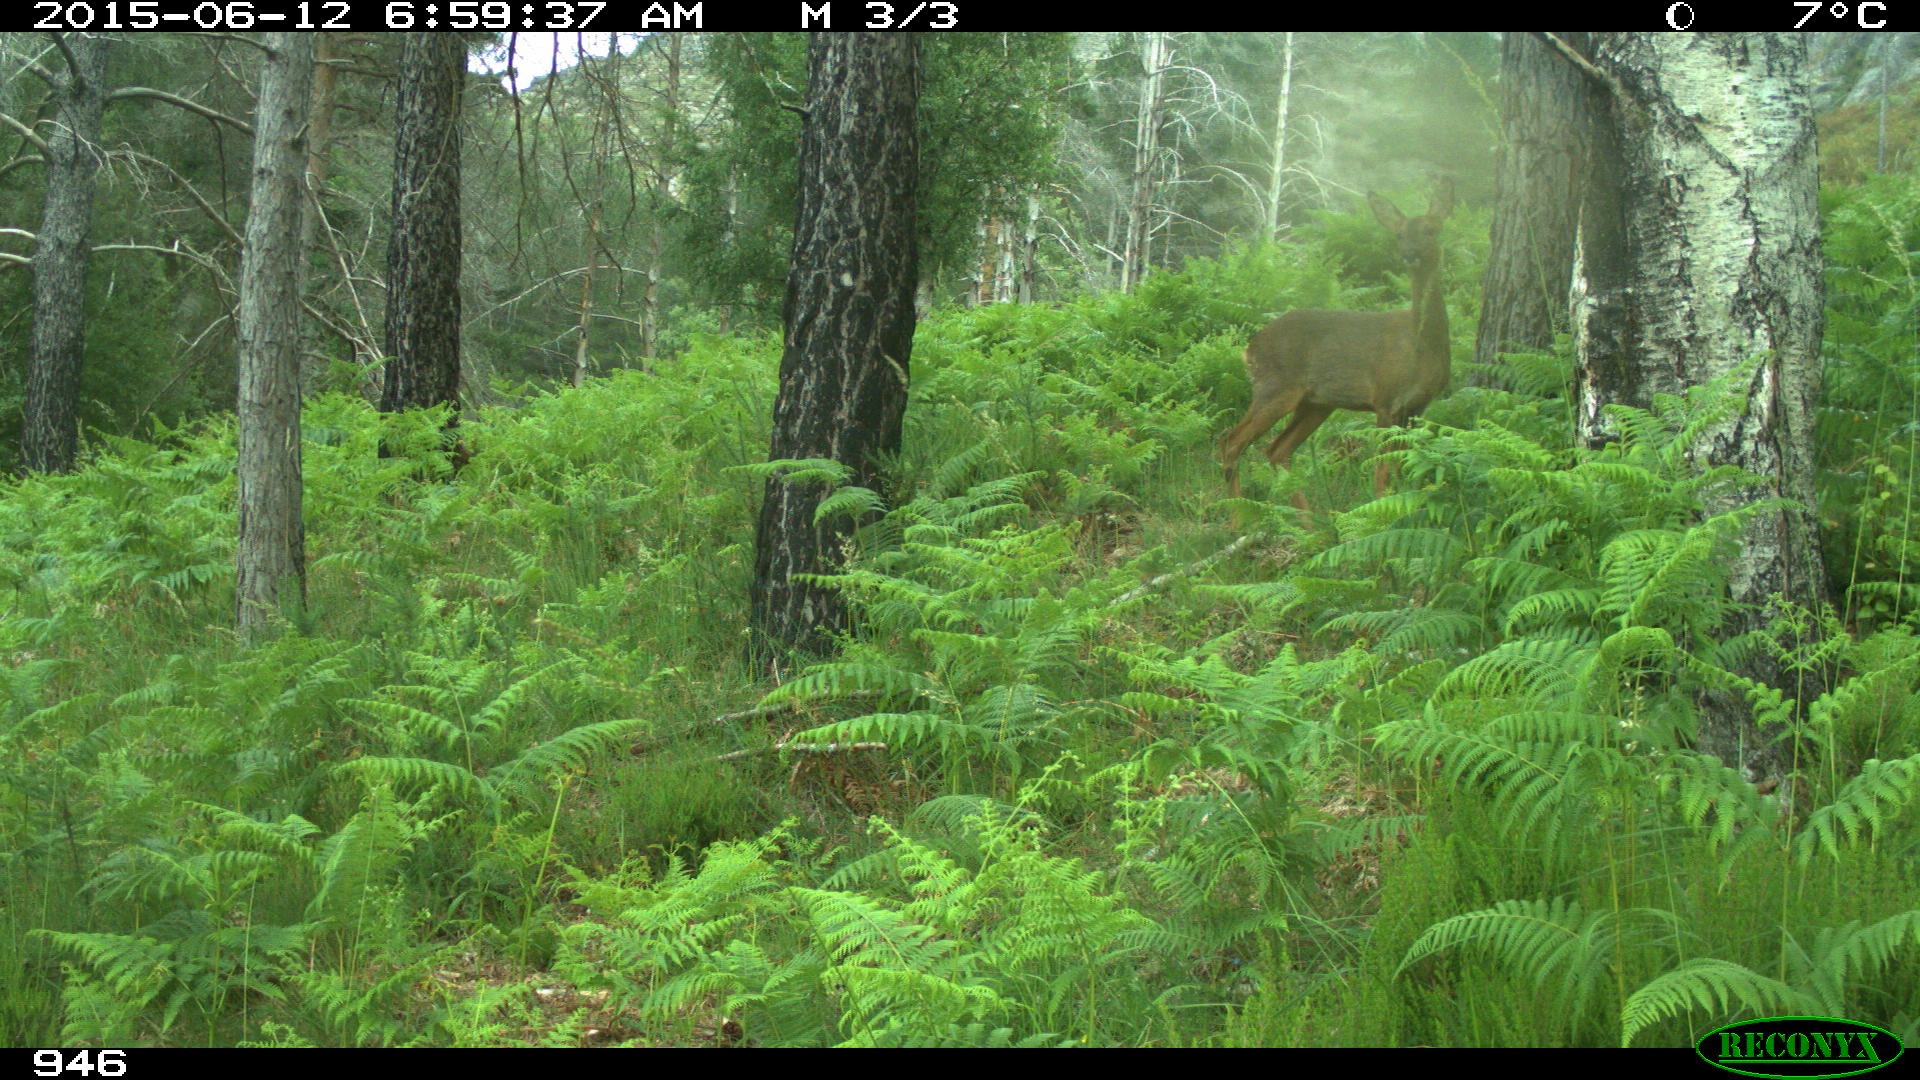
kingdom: Animalia
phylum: Chordata
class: Mammalia
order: Artiodactyla
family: Cervidae
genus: Capreolus
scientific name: Capreolus capreolus
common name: Western roe deer
